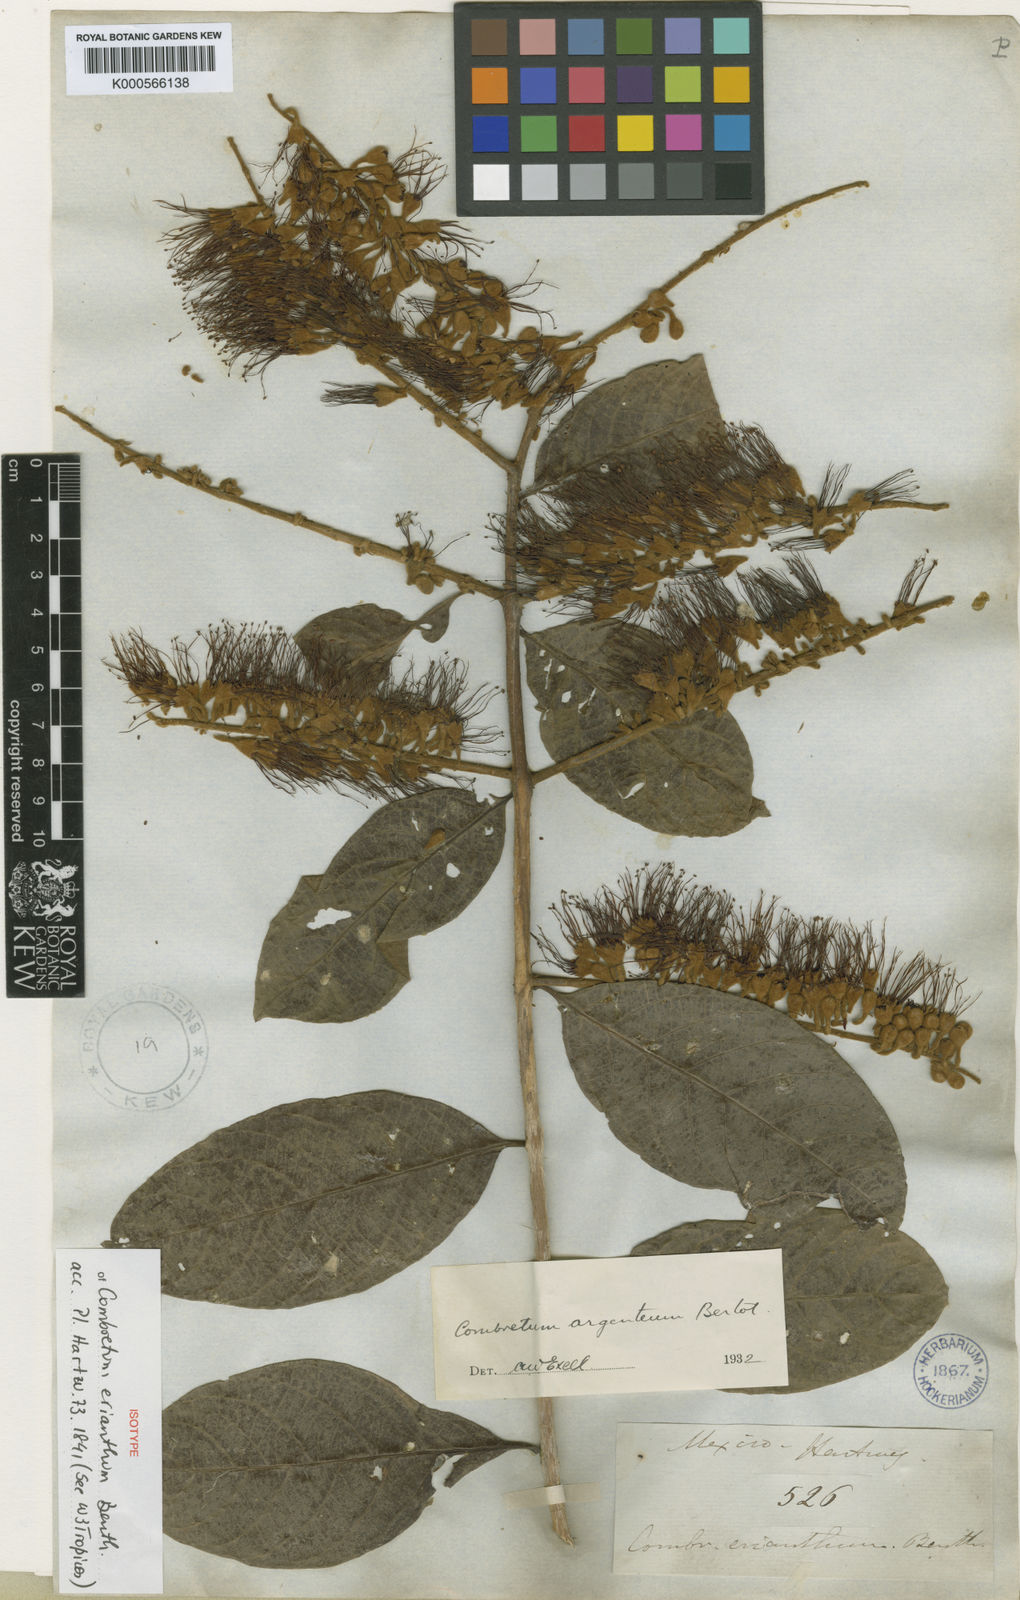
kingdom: Plantae
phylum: Tracheophyta
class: Magnoliopsida
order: Myrtales
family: Combretaceae
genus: Combretum
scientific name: Combretum argenteum
